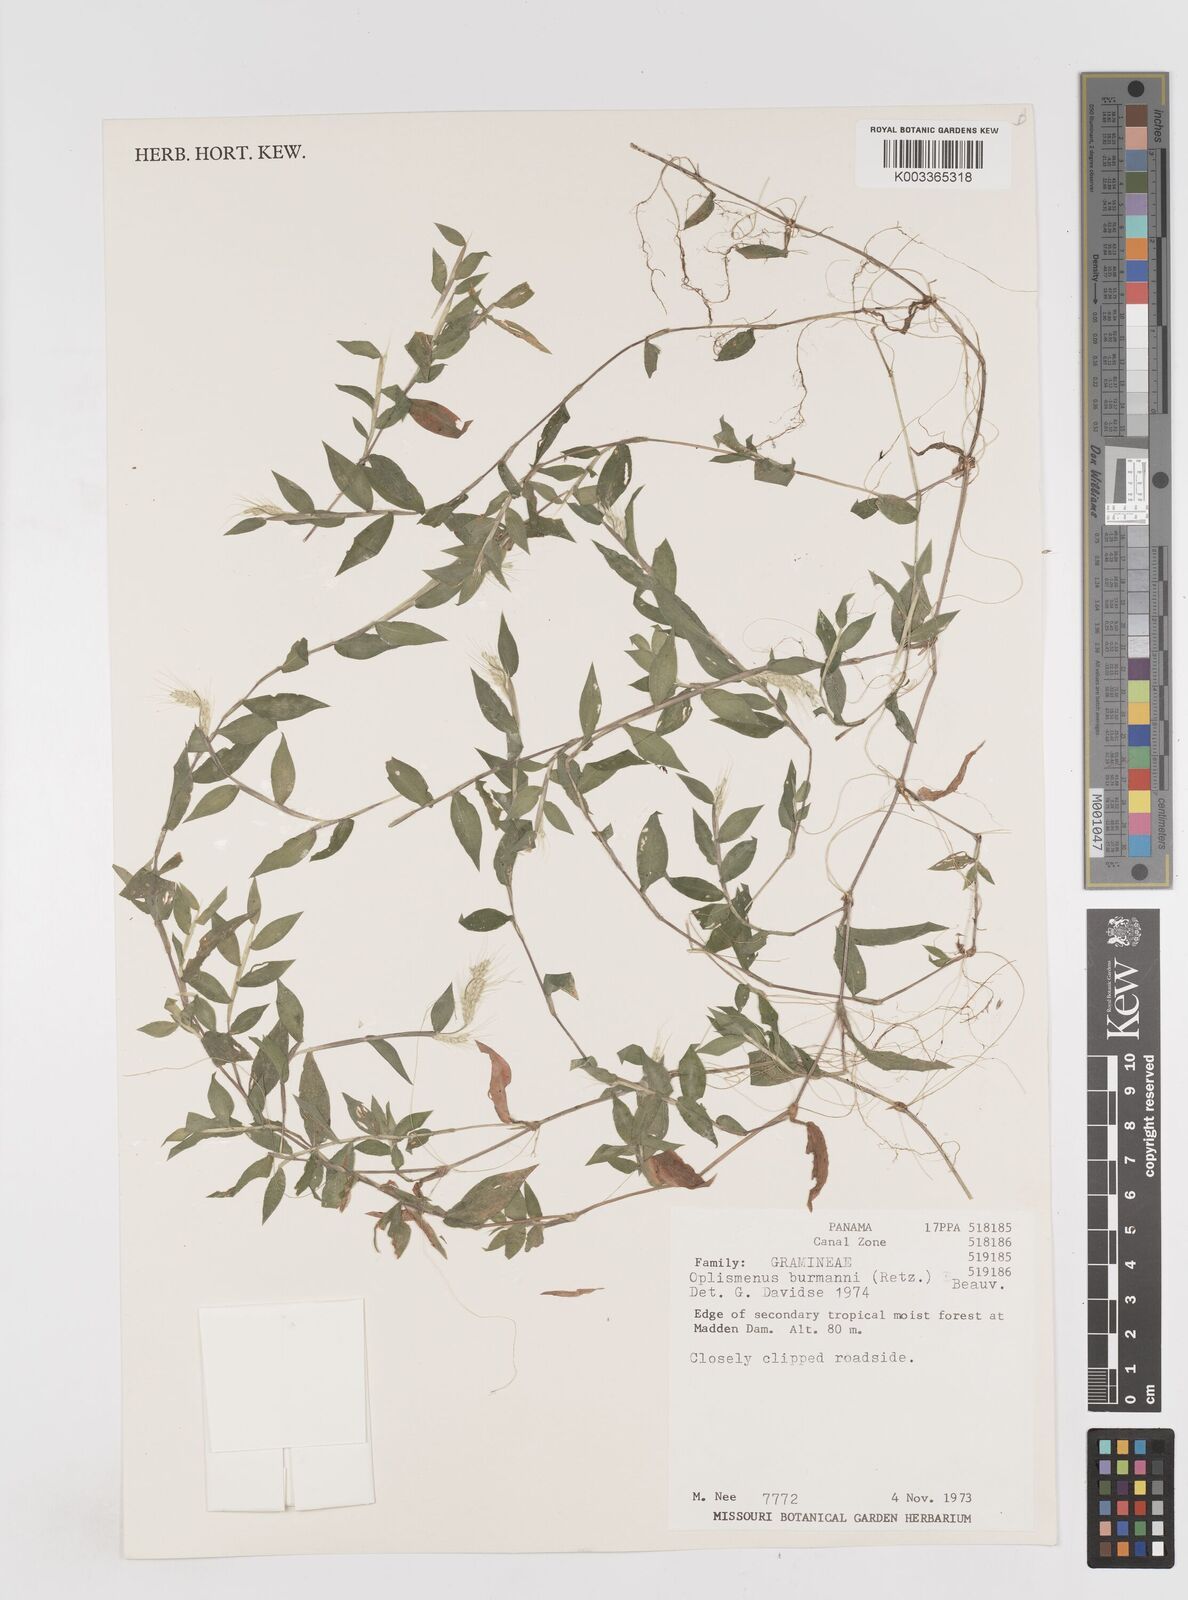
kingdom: Plantae
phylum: Tracheophyta
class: Liliopsida
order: Poales
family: Poaceae
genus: Oplismenus
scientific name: Oplismenus burmanni
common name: Burmann's basketgrass
